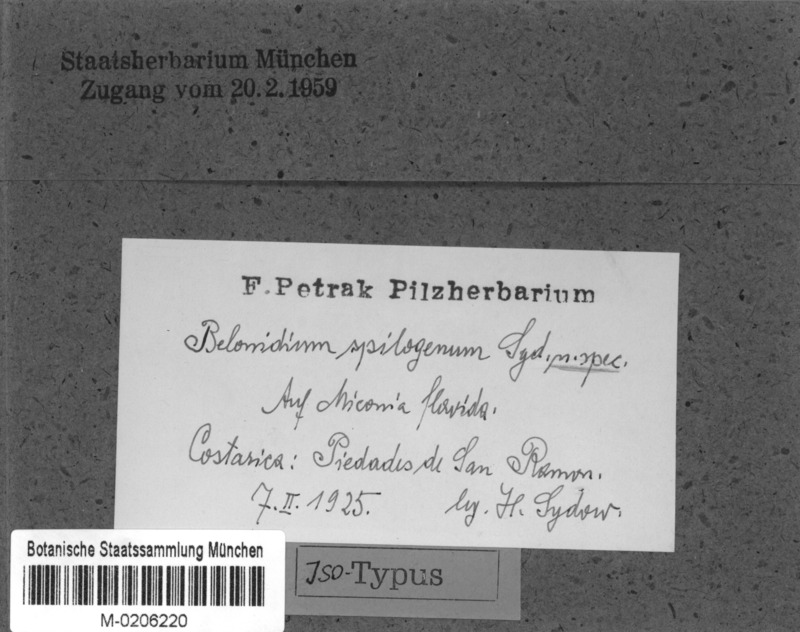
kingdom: Fungi
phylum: Ascomycota
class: Leotiomycetes
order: Helotiales
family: Lachnaceae
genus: Belonidium
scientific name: Belonidium spilogenum
